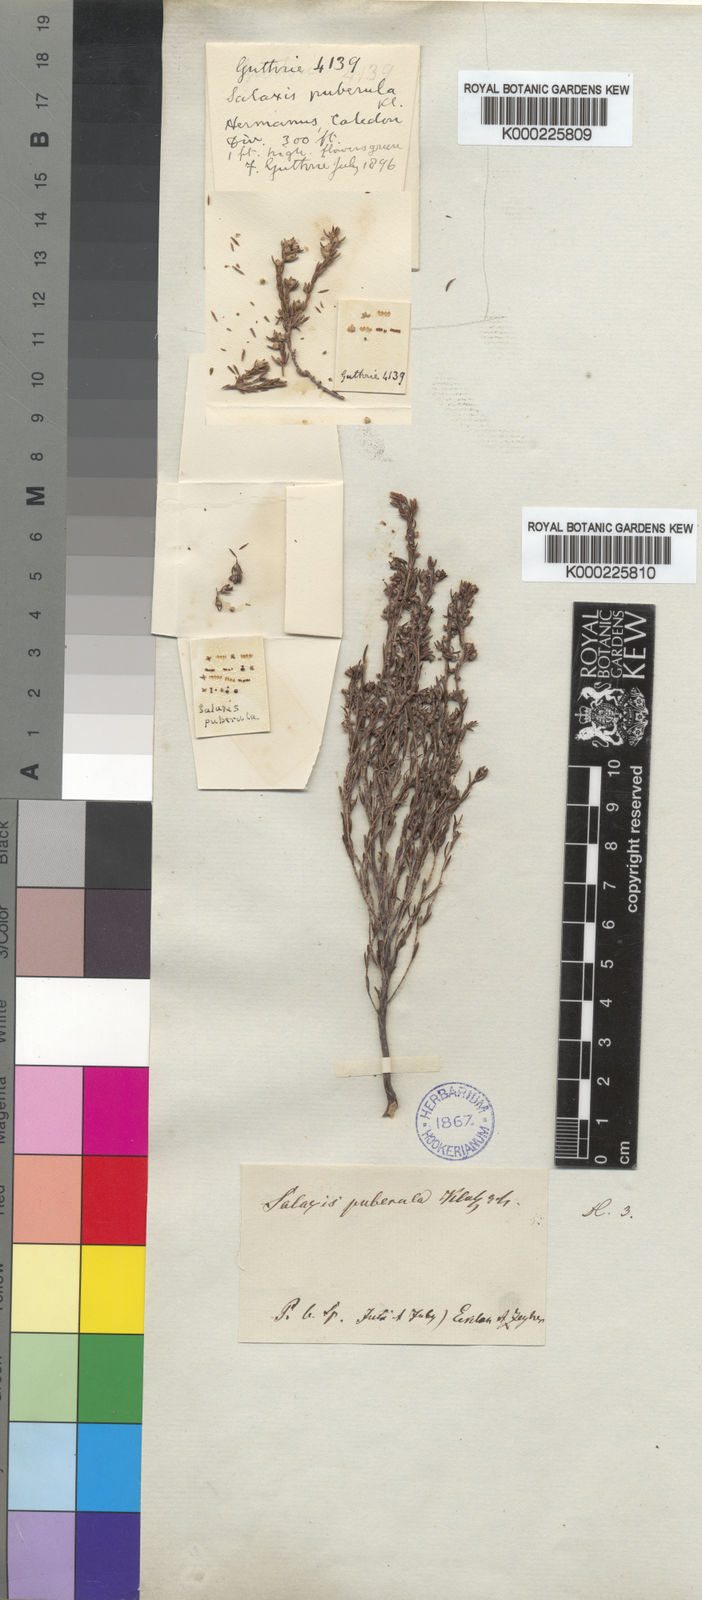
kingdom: Plantae
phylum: Tracheophyta
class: Magnoliopsida
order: Ericales
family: Ericaceae
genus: Erica
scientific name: Erica axillaris
